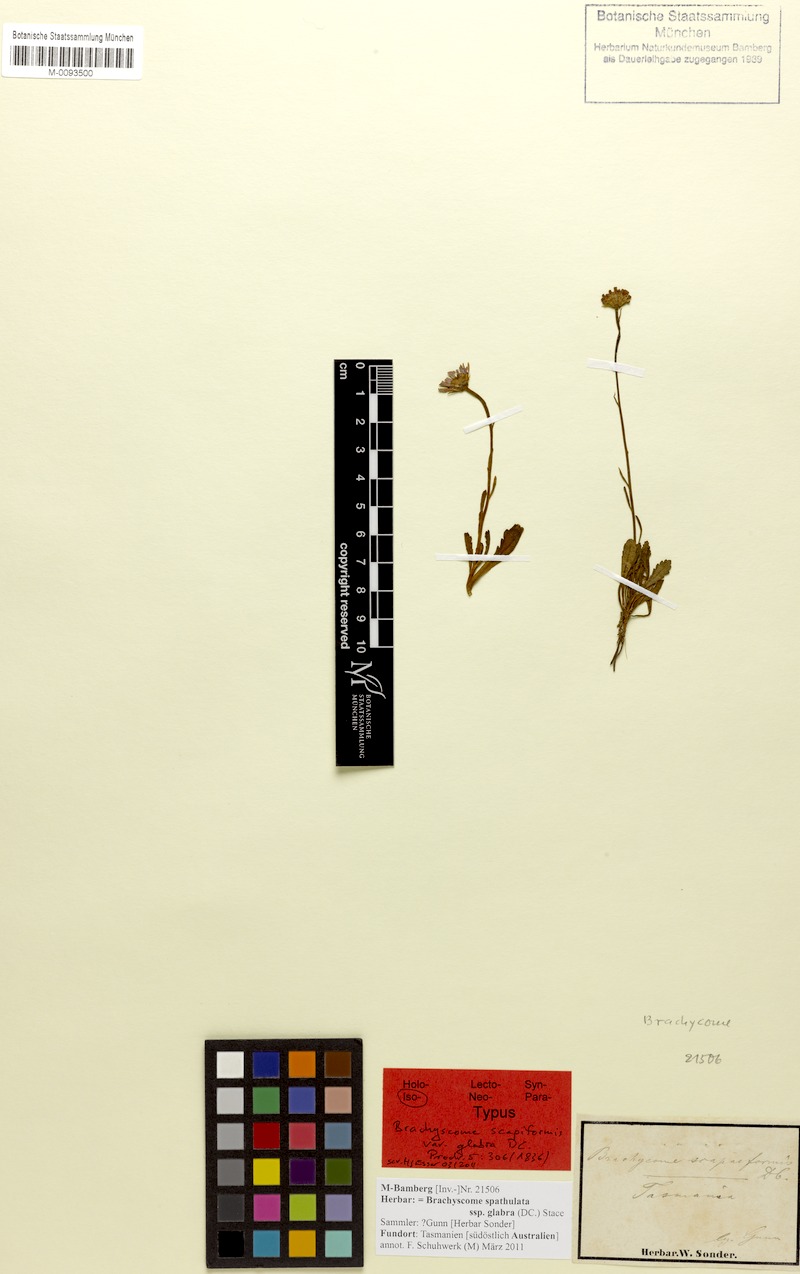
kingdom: Plantae
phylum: Tracheophyta
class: Magnoliopsida
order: Asterales
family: Asteraceae
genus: Brachyscome
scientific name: Brachyscome spathulata
